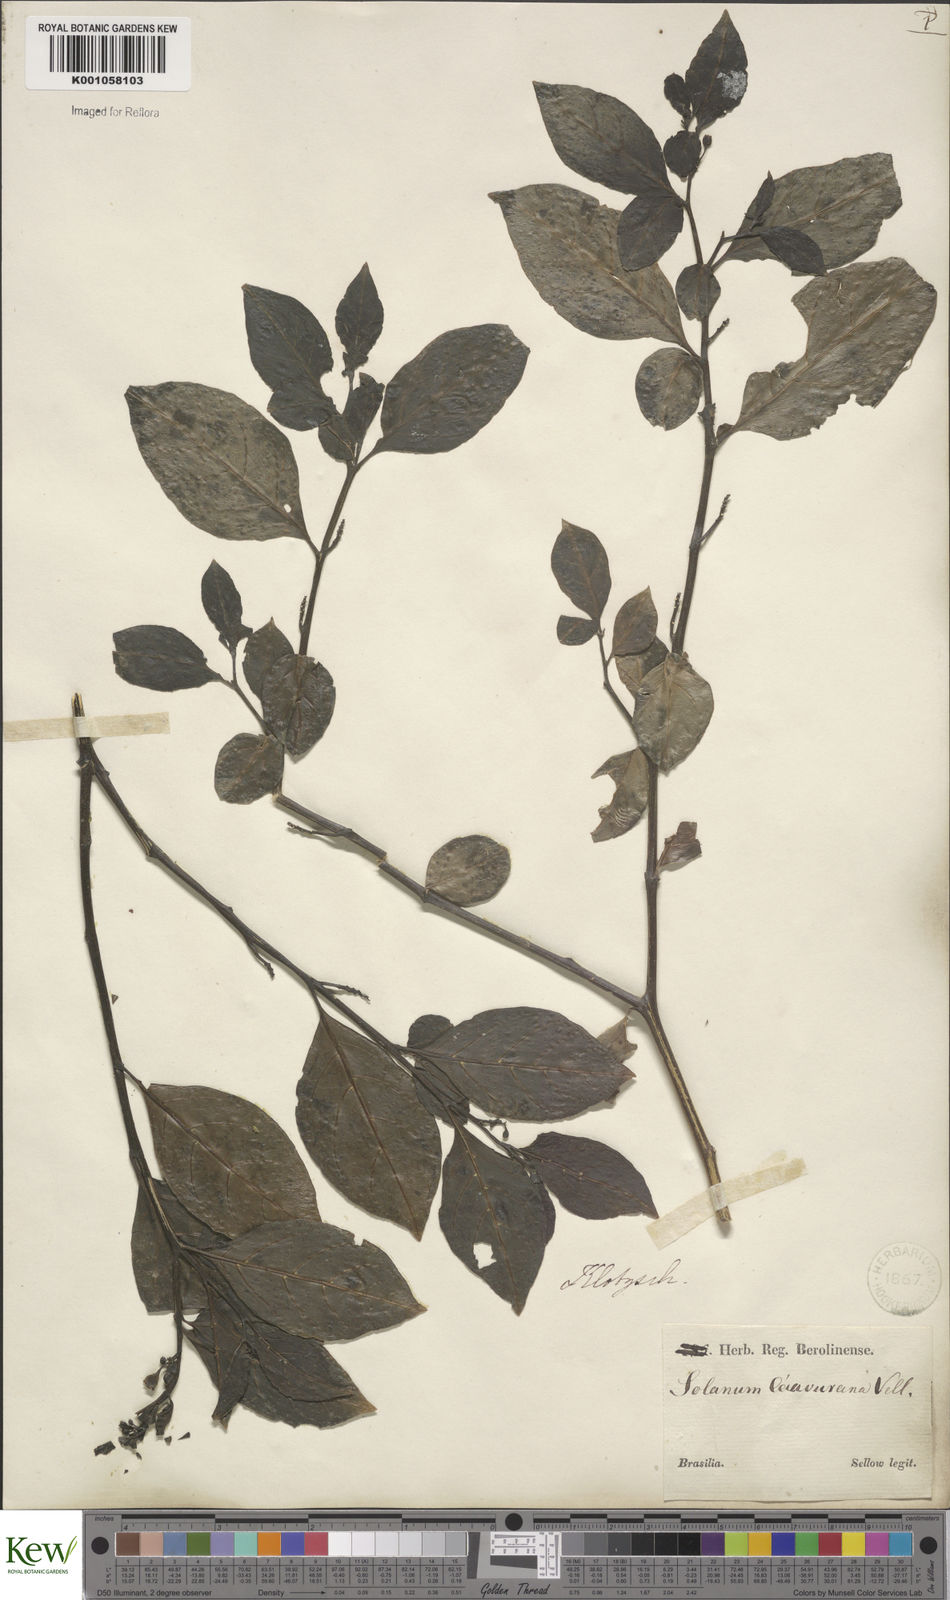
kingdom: Plantae
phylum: Tracheophyta
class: Magnoliopsida
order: Solanales
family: Solanaceae
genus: Solanum
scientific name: Solanum caavurana
